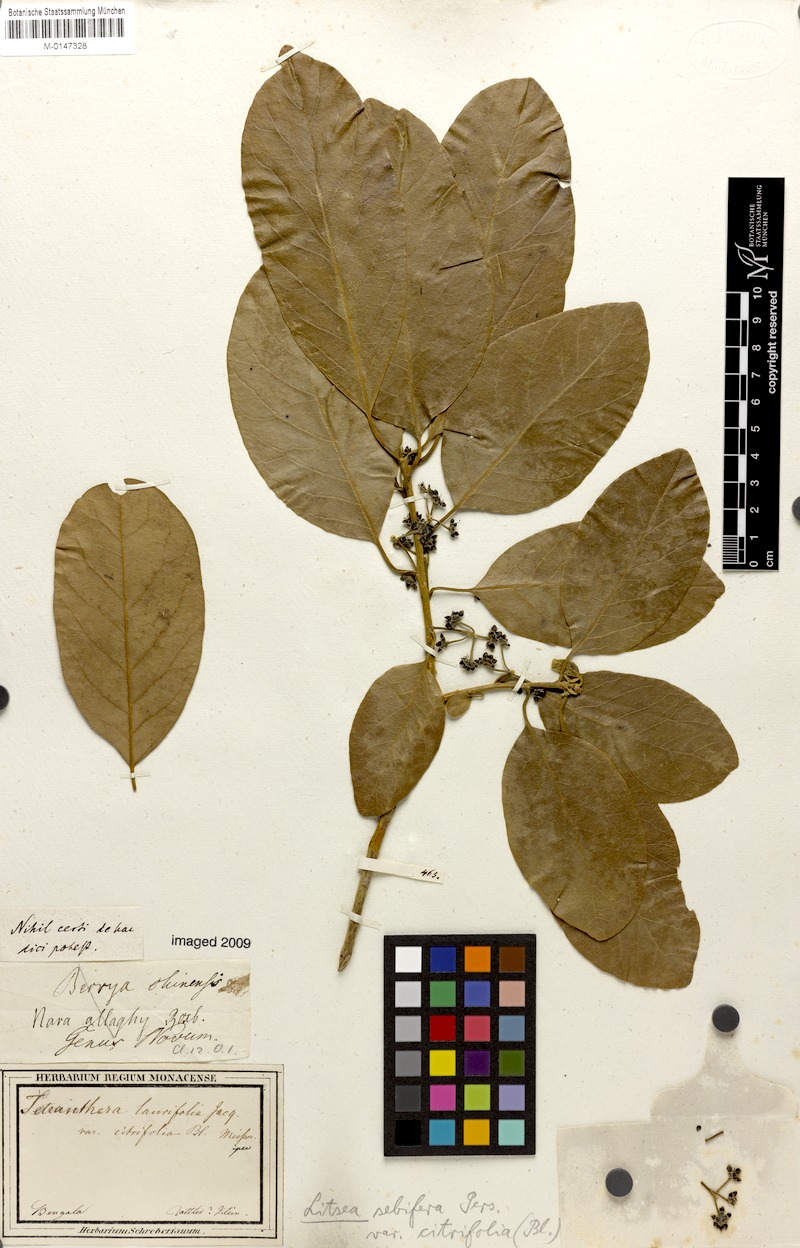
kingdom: Plantae
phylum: Tracheophyta
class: Magnoliopsida
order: Laurales
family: Lauraceae
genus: Litsea
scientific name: Litsea
